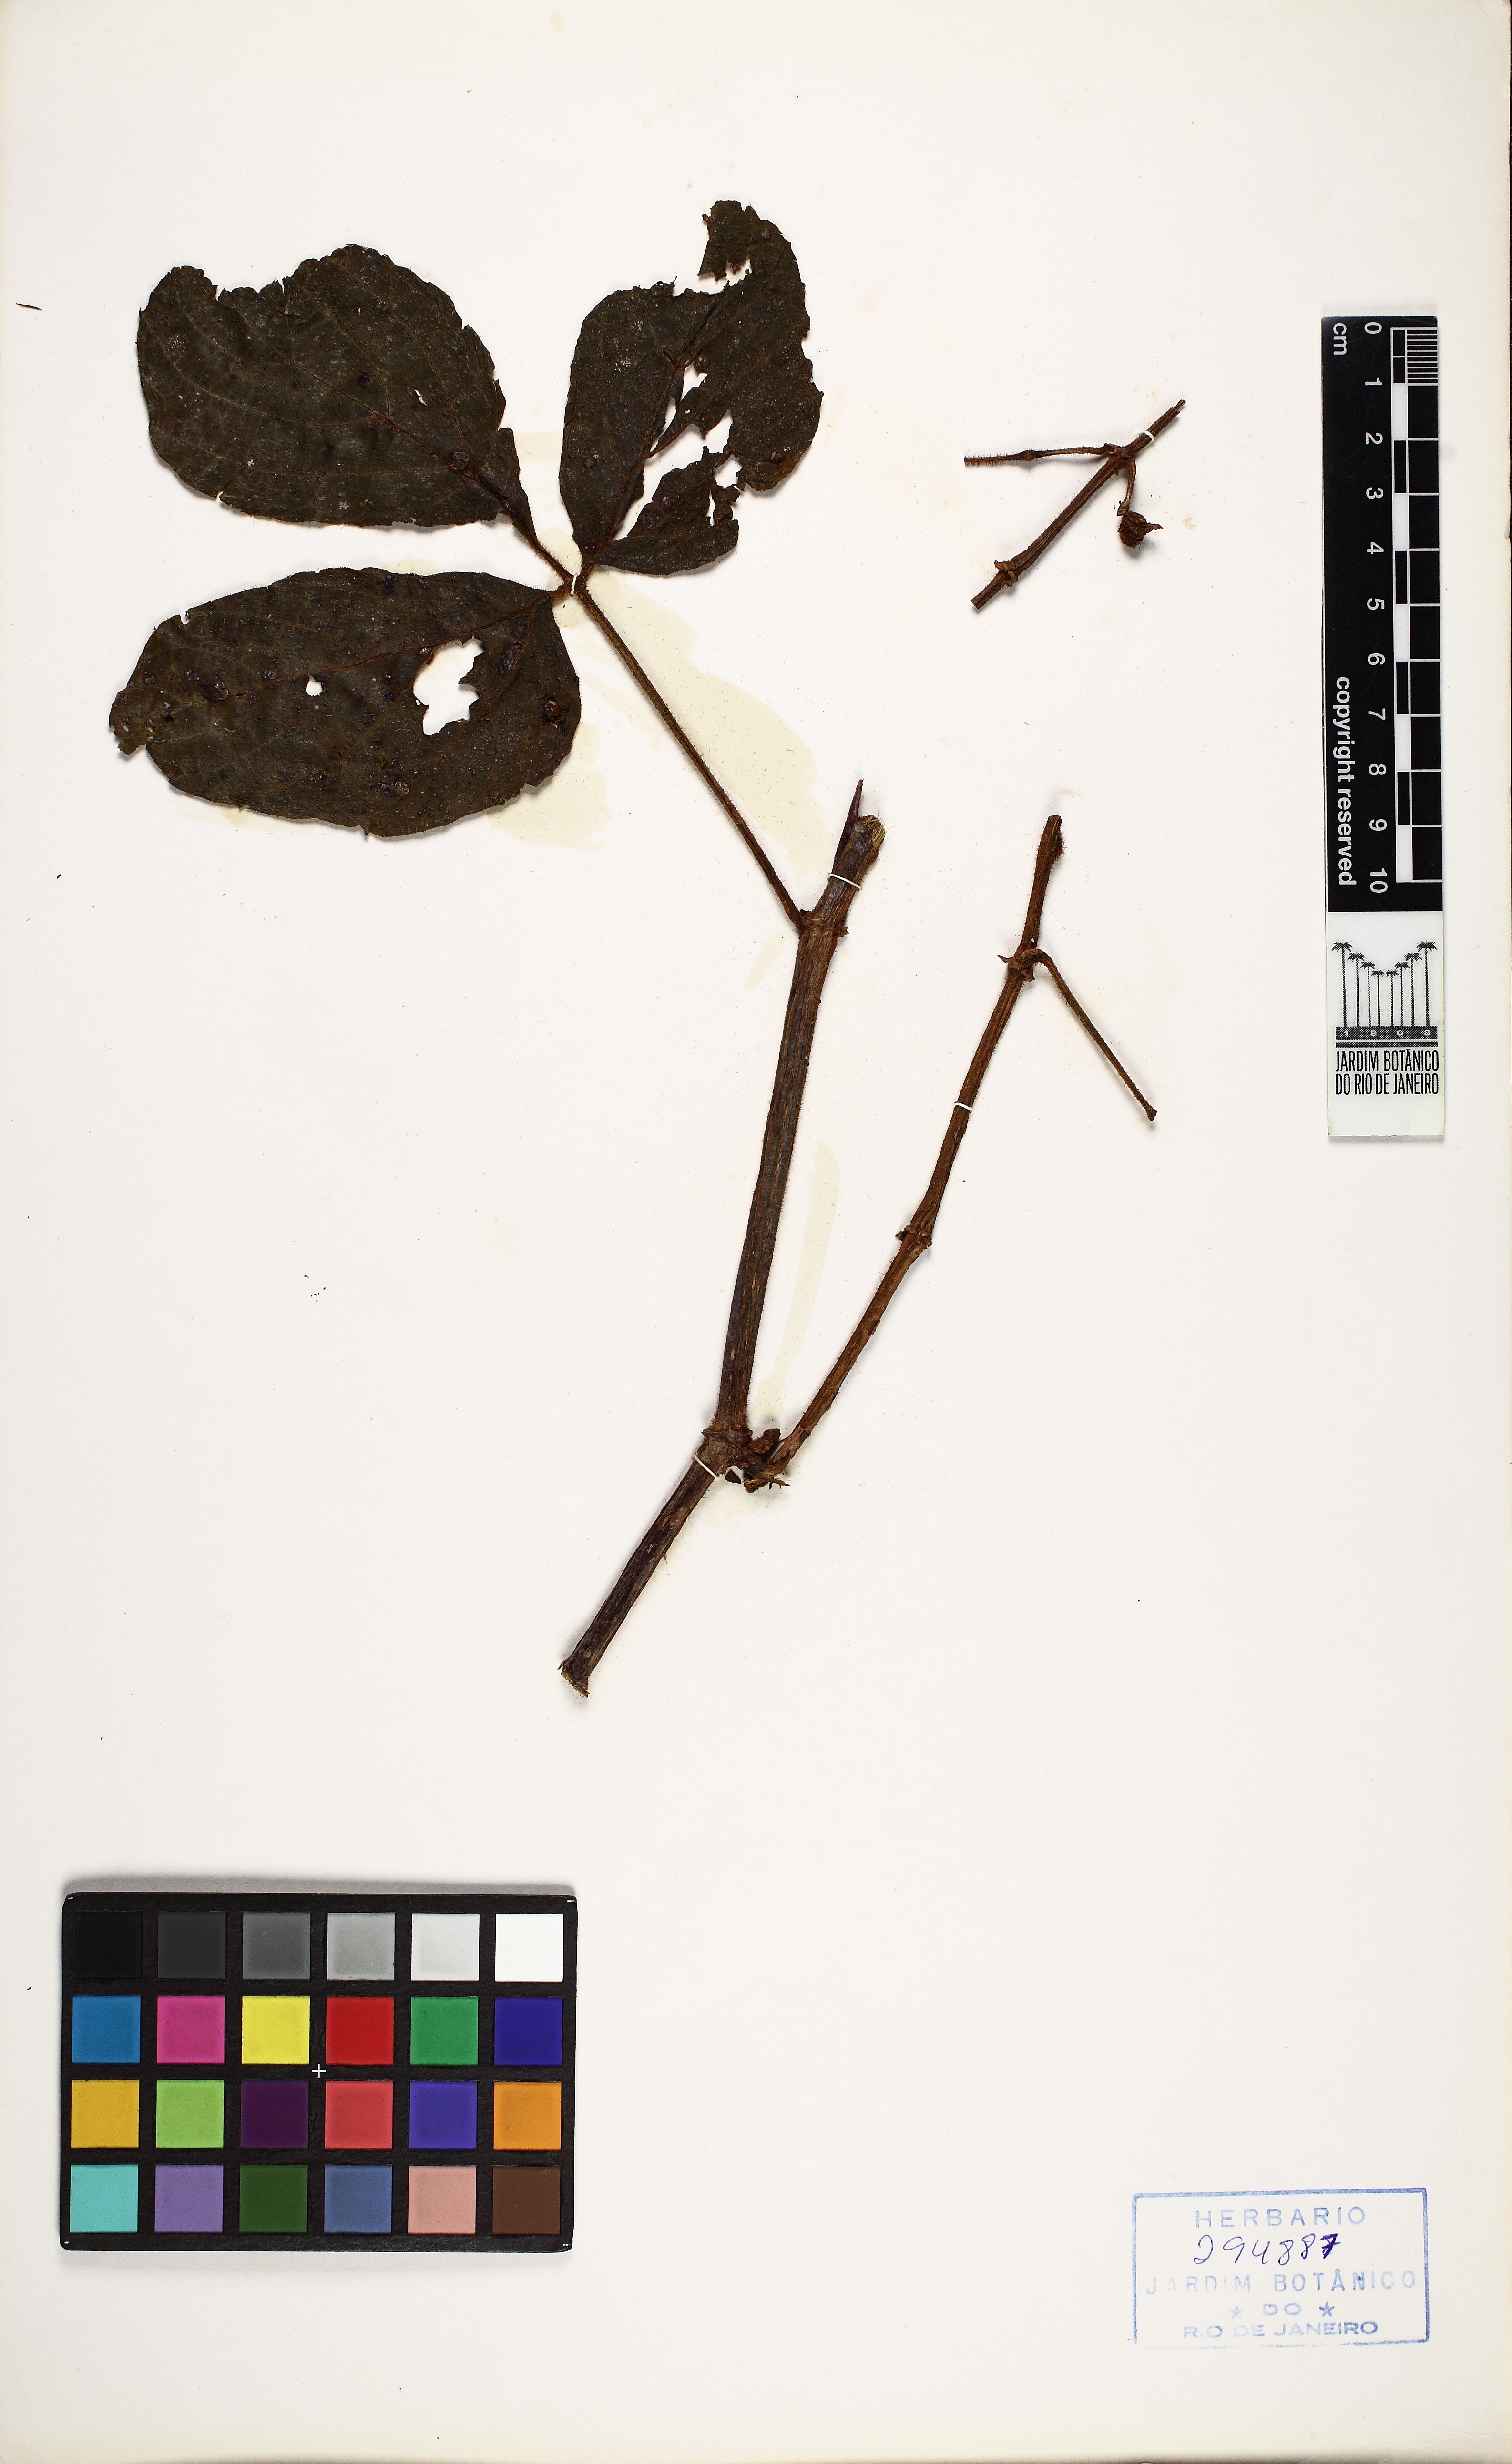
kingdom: Plantae
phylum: Tracheophyta
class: Magnoliopsida
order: Vitales
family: Vitaceae
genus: Cissus
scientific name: Cissus sulcicaulis
